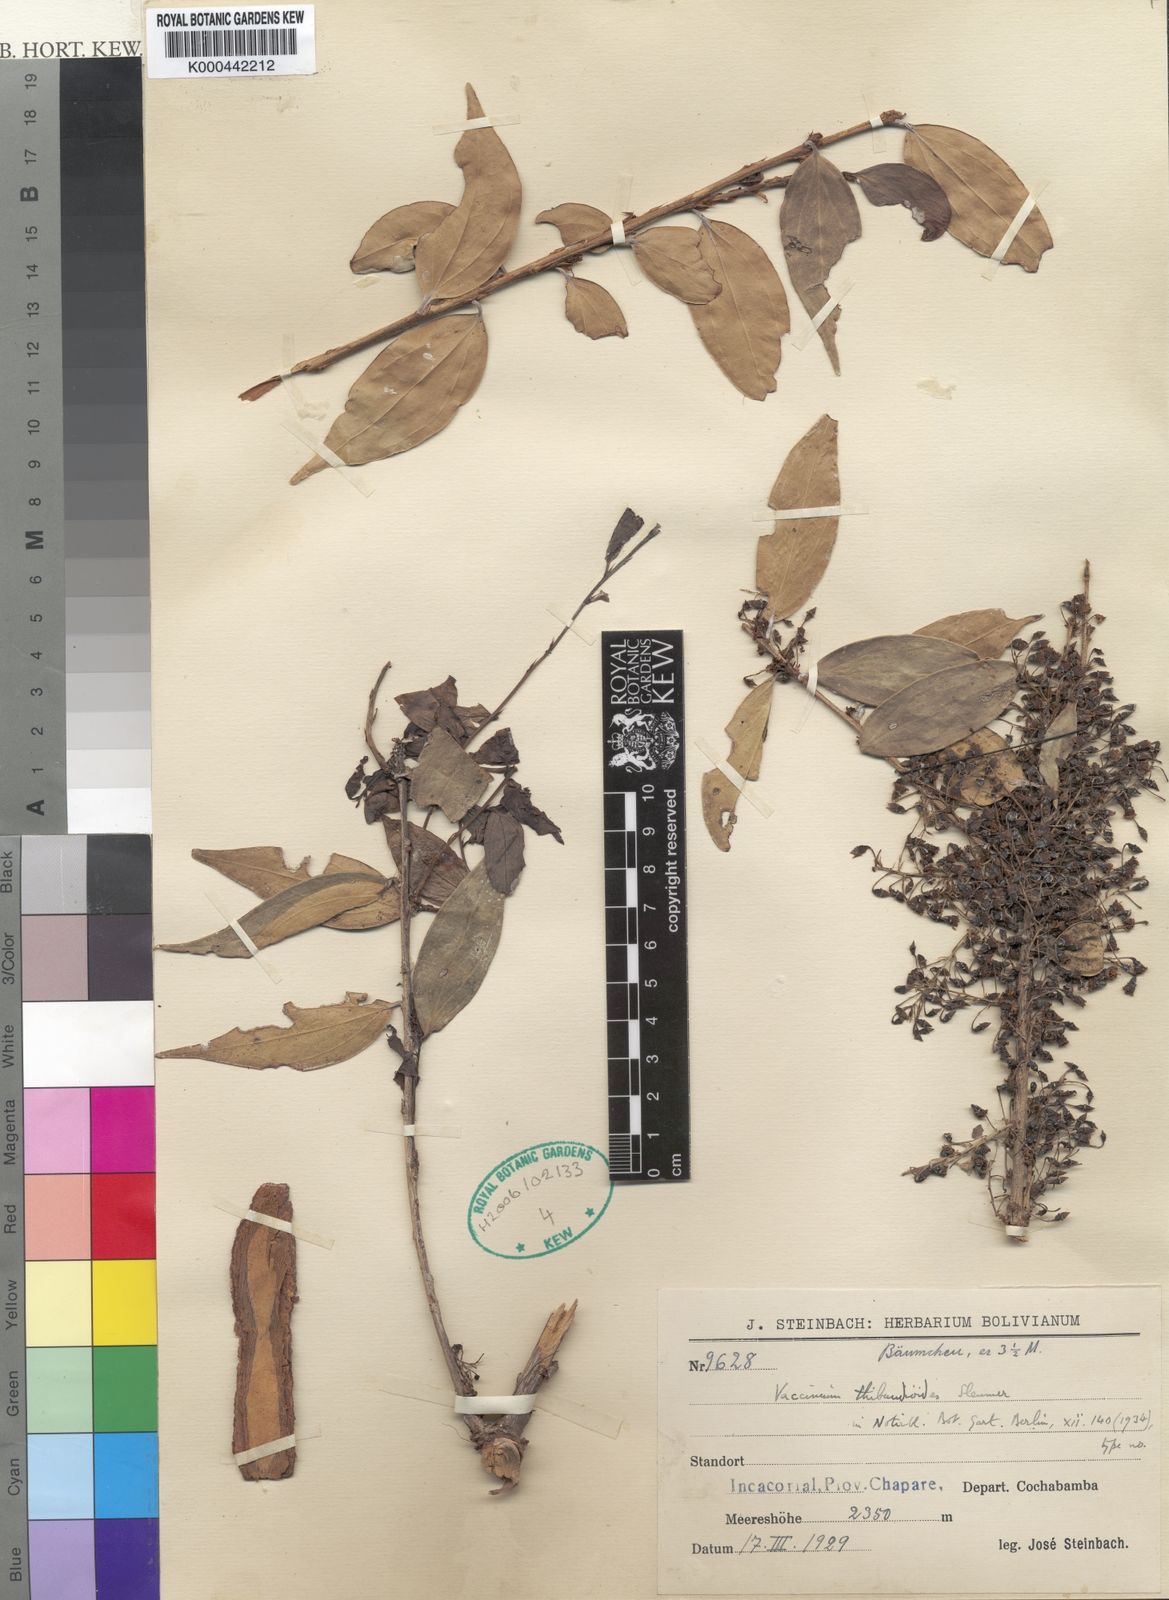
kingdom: Plantae
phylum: Tracheophyta
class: Magnoliopsida
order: Ericales
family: Ericaceae
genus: Vaccinium
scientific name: Vaccinium thibaudifolium
